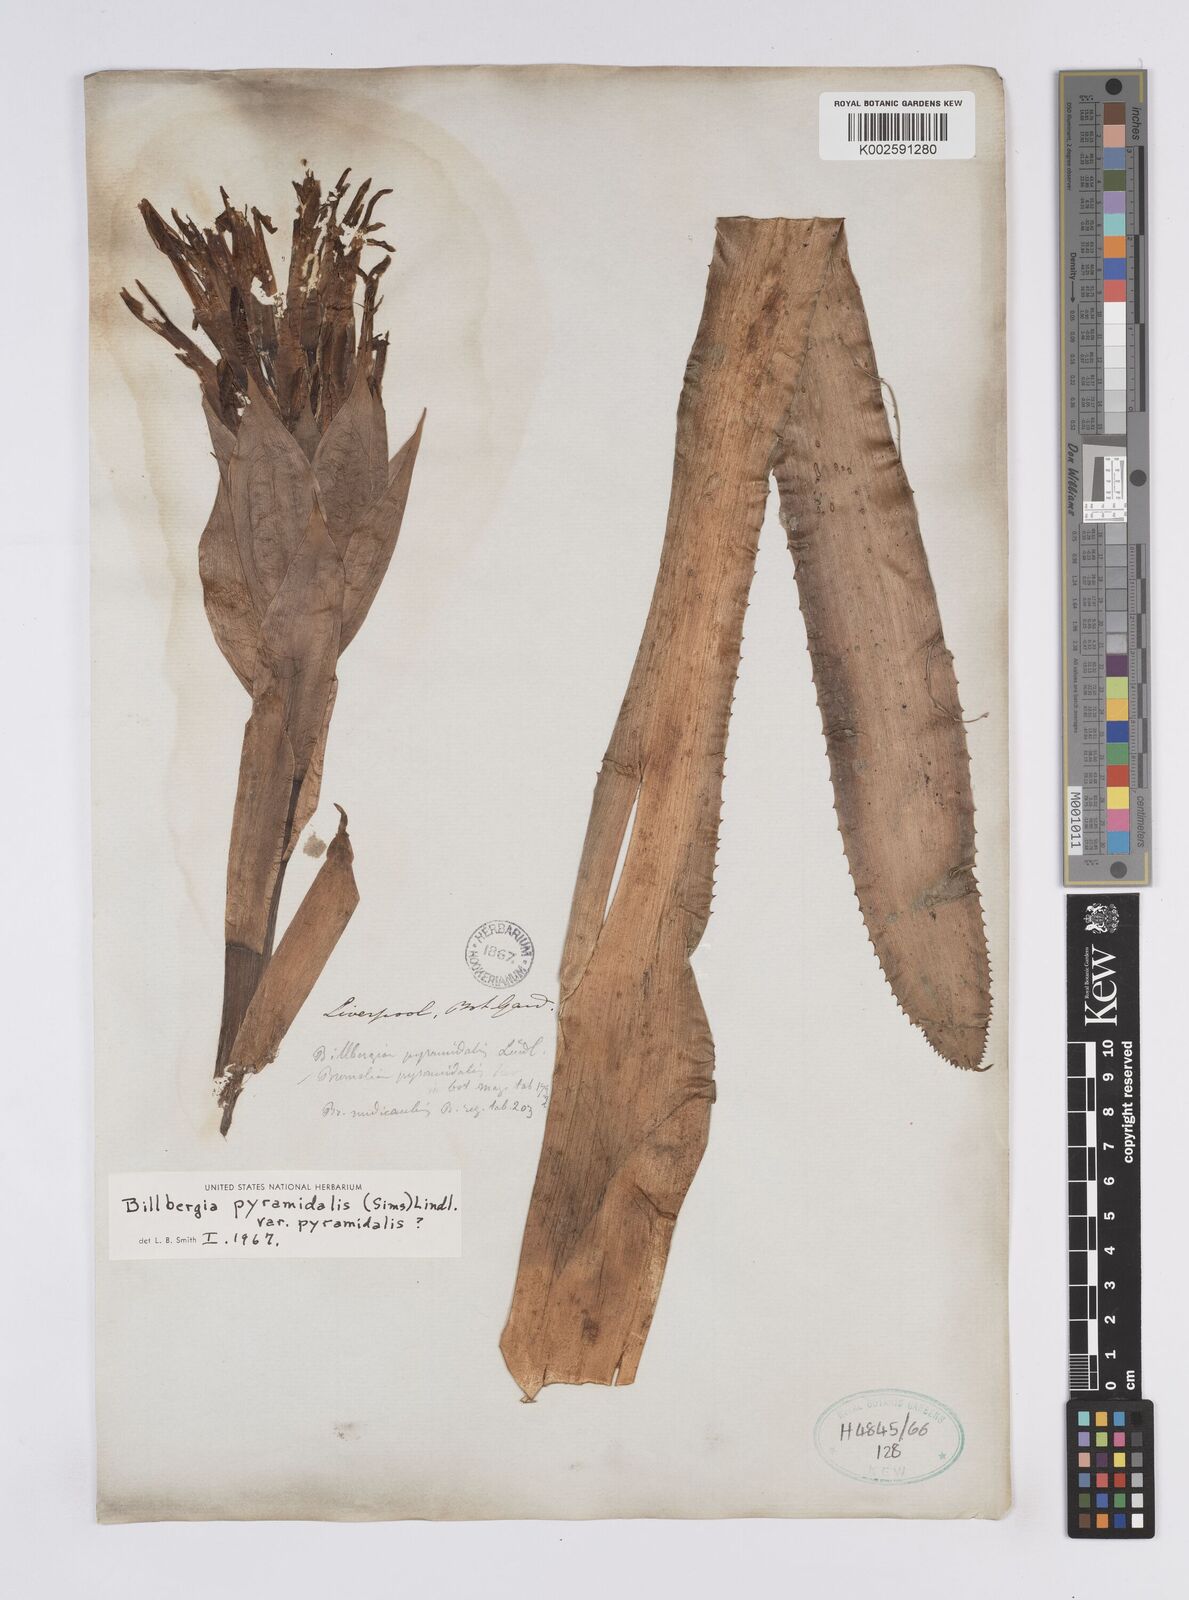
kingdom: Plantae
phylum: Tracheophyta
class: Liliopsida
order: Poales
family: Bromeliaceae
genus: Billbergia
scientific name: Billbergia pyramidalis
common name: Foolproofplant
